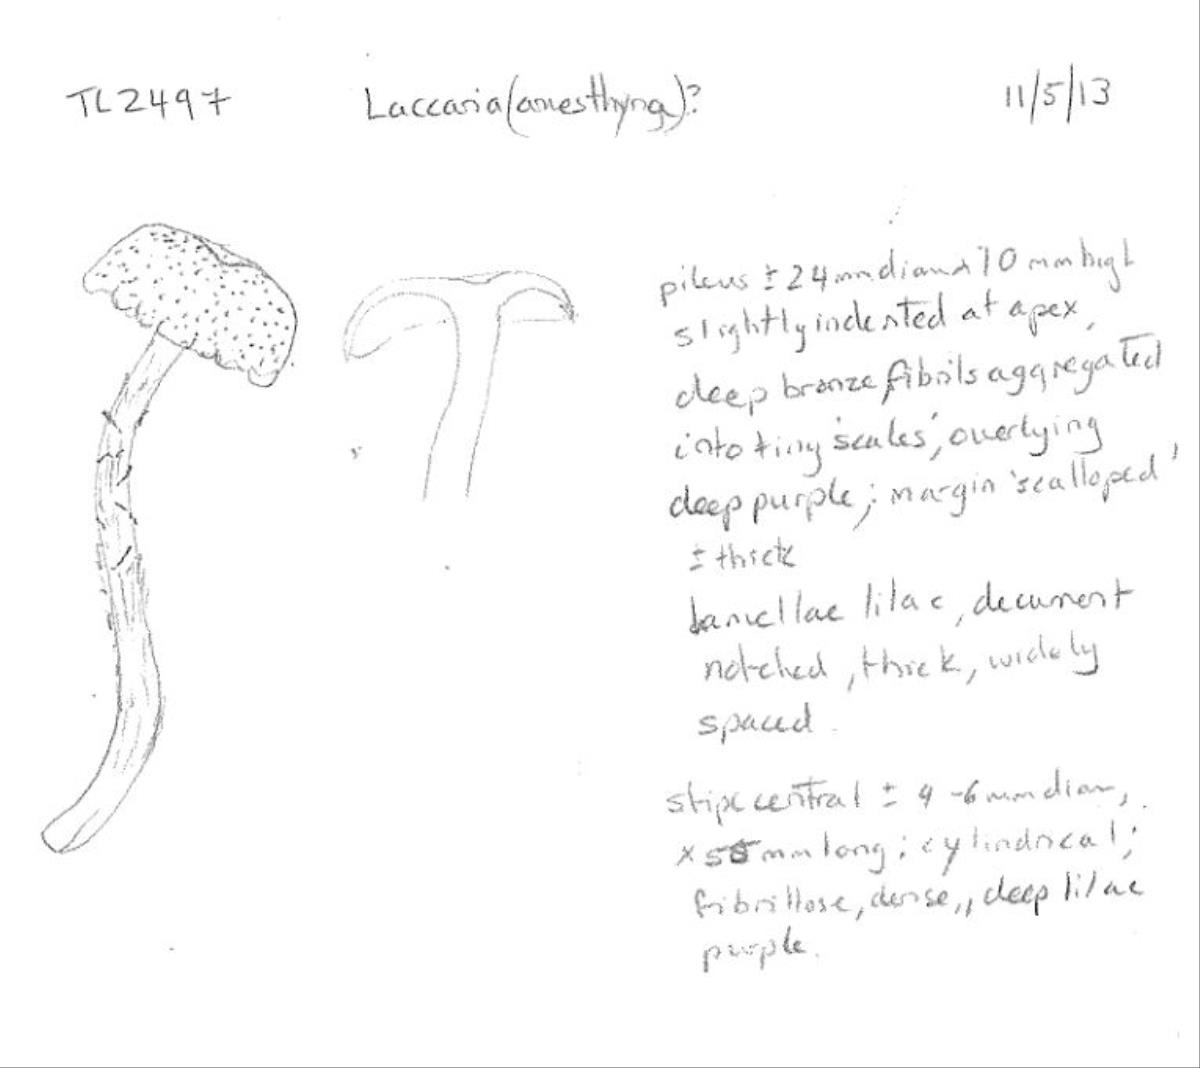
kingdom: Fungi
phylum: Basidiomycota
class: Agaricomycetes
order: Agaricales
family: Hydnangiaceae
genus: Laccaria
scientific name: Laccaria
